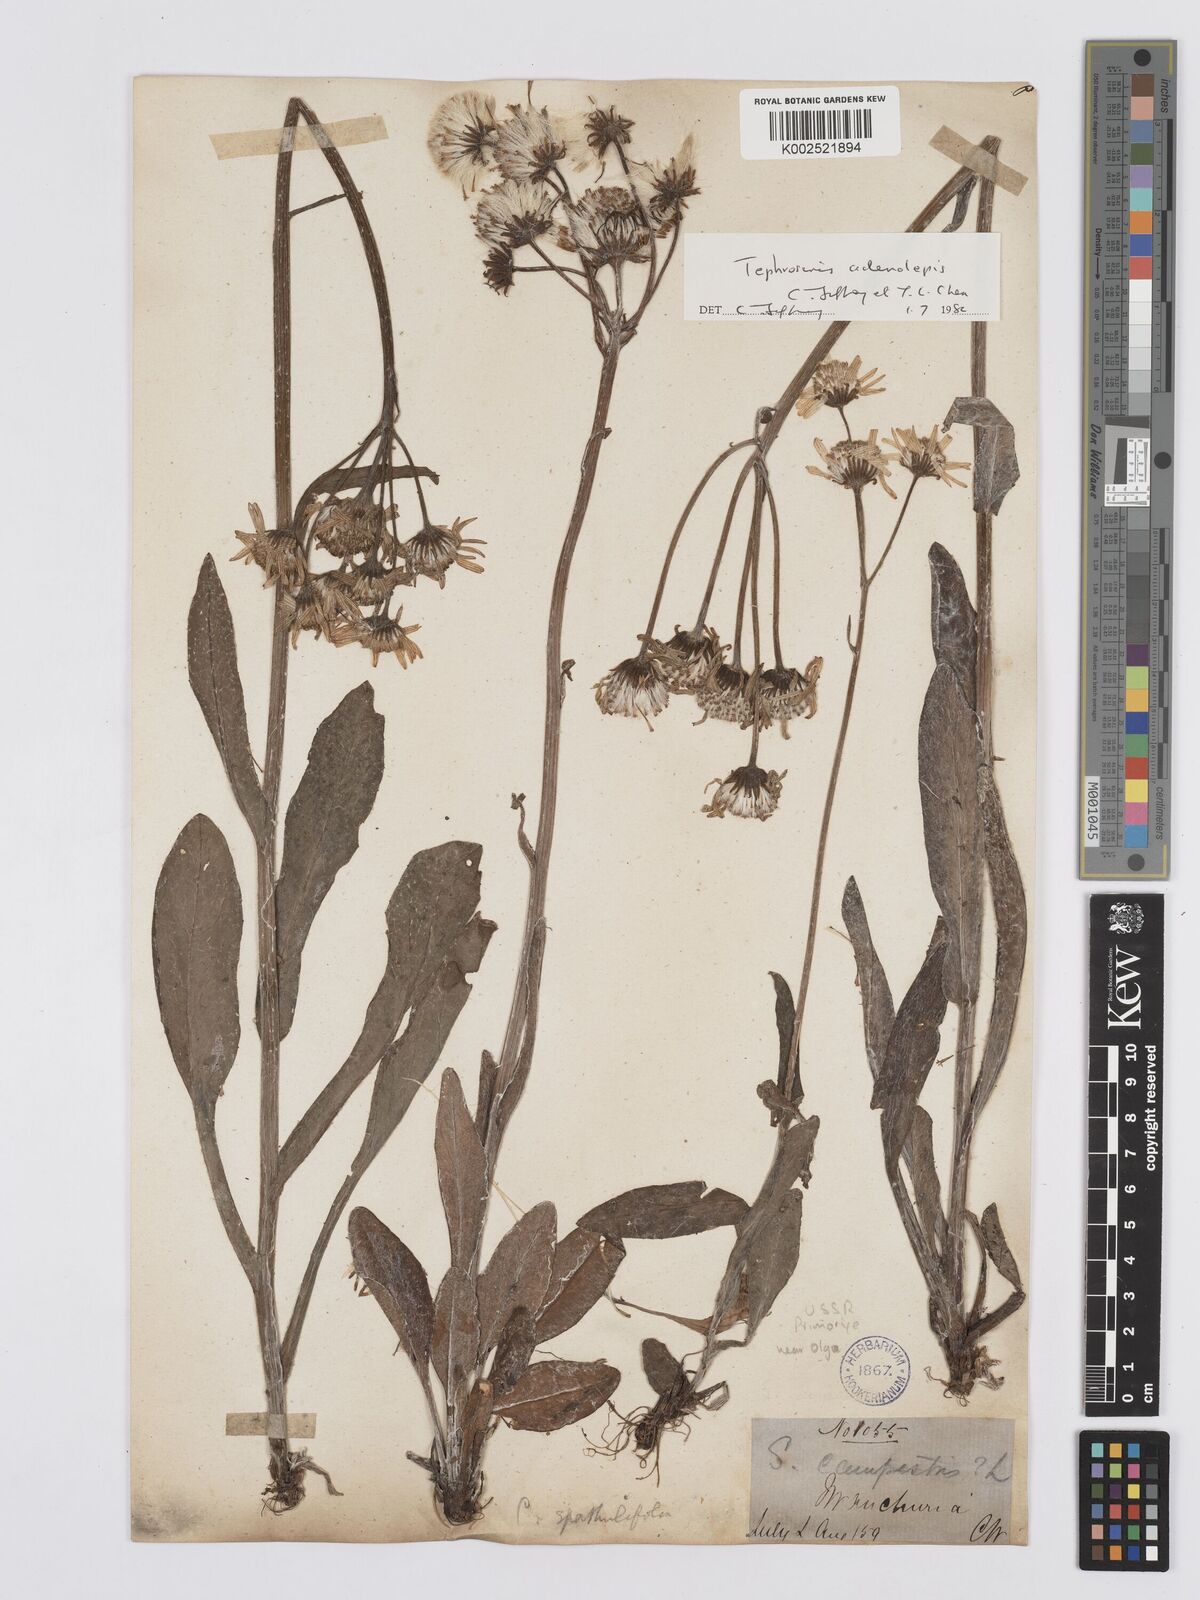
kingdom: Plantae
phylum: Tracheophyta
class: Magnoliopsida
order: Asterales
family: Asteraceae
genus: Tephroseris
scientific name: Tephroseris adenolepis
